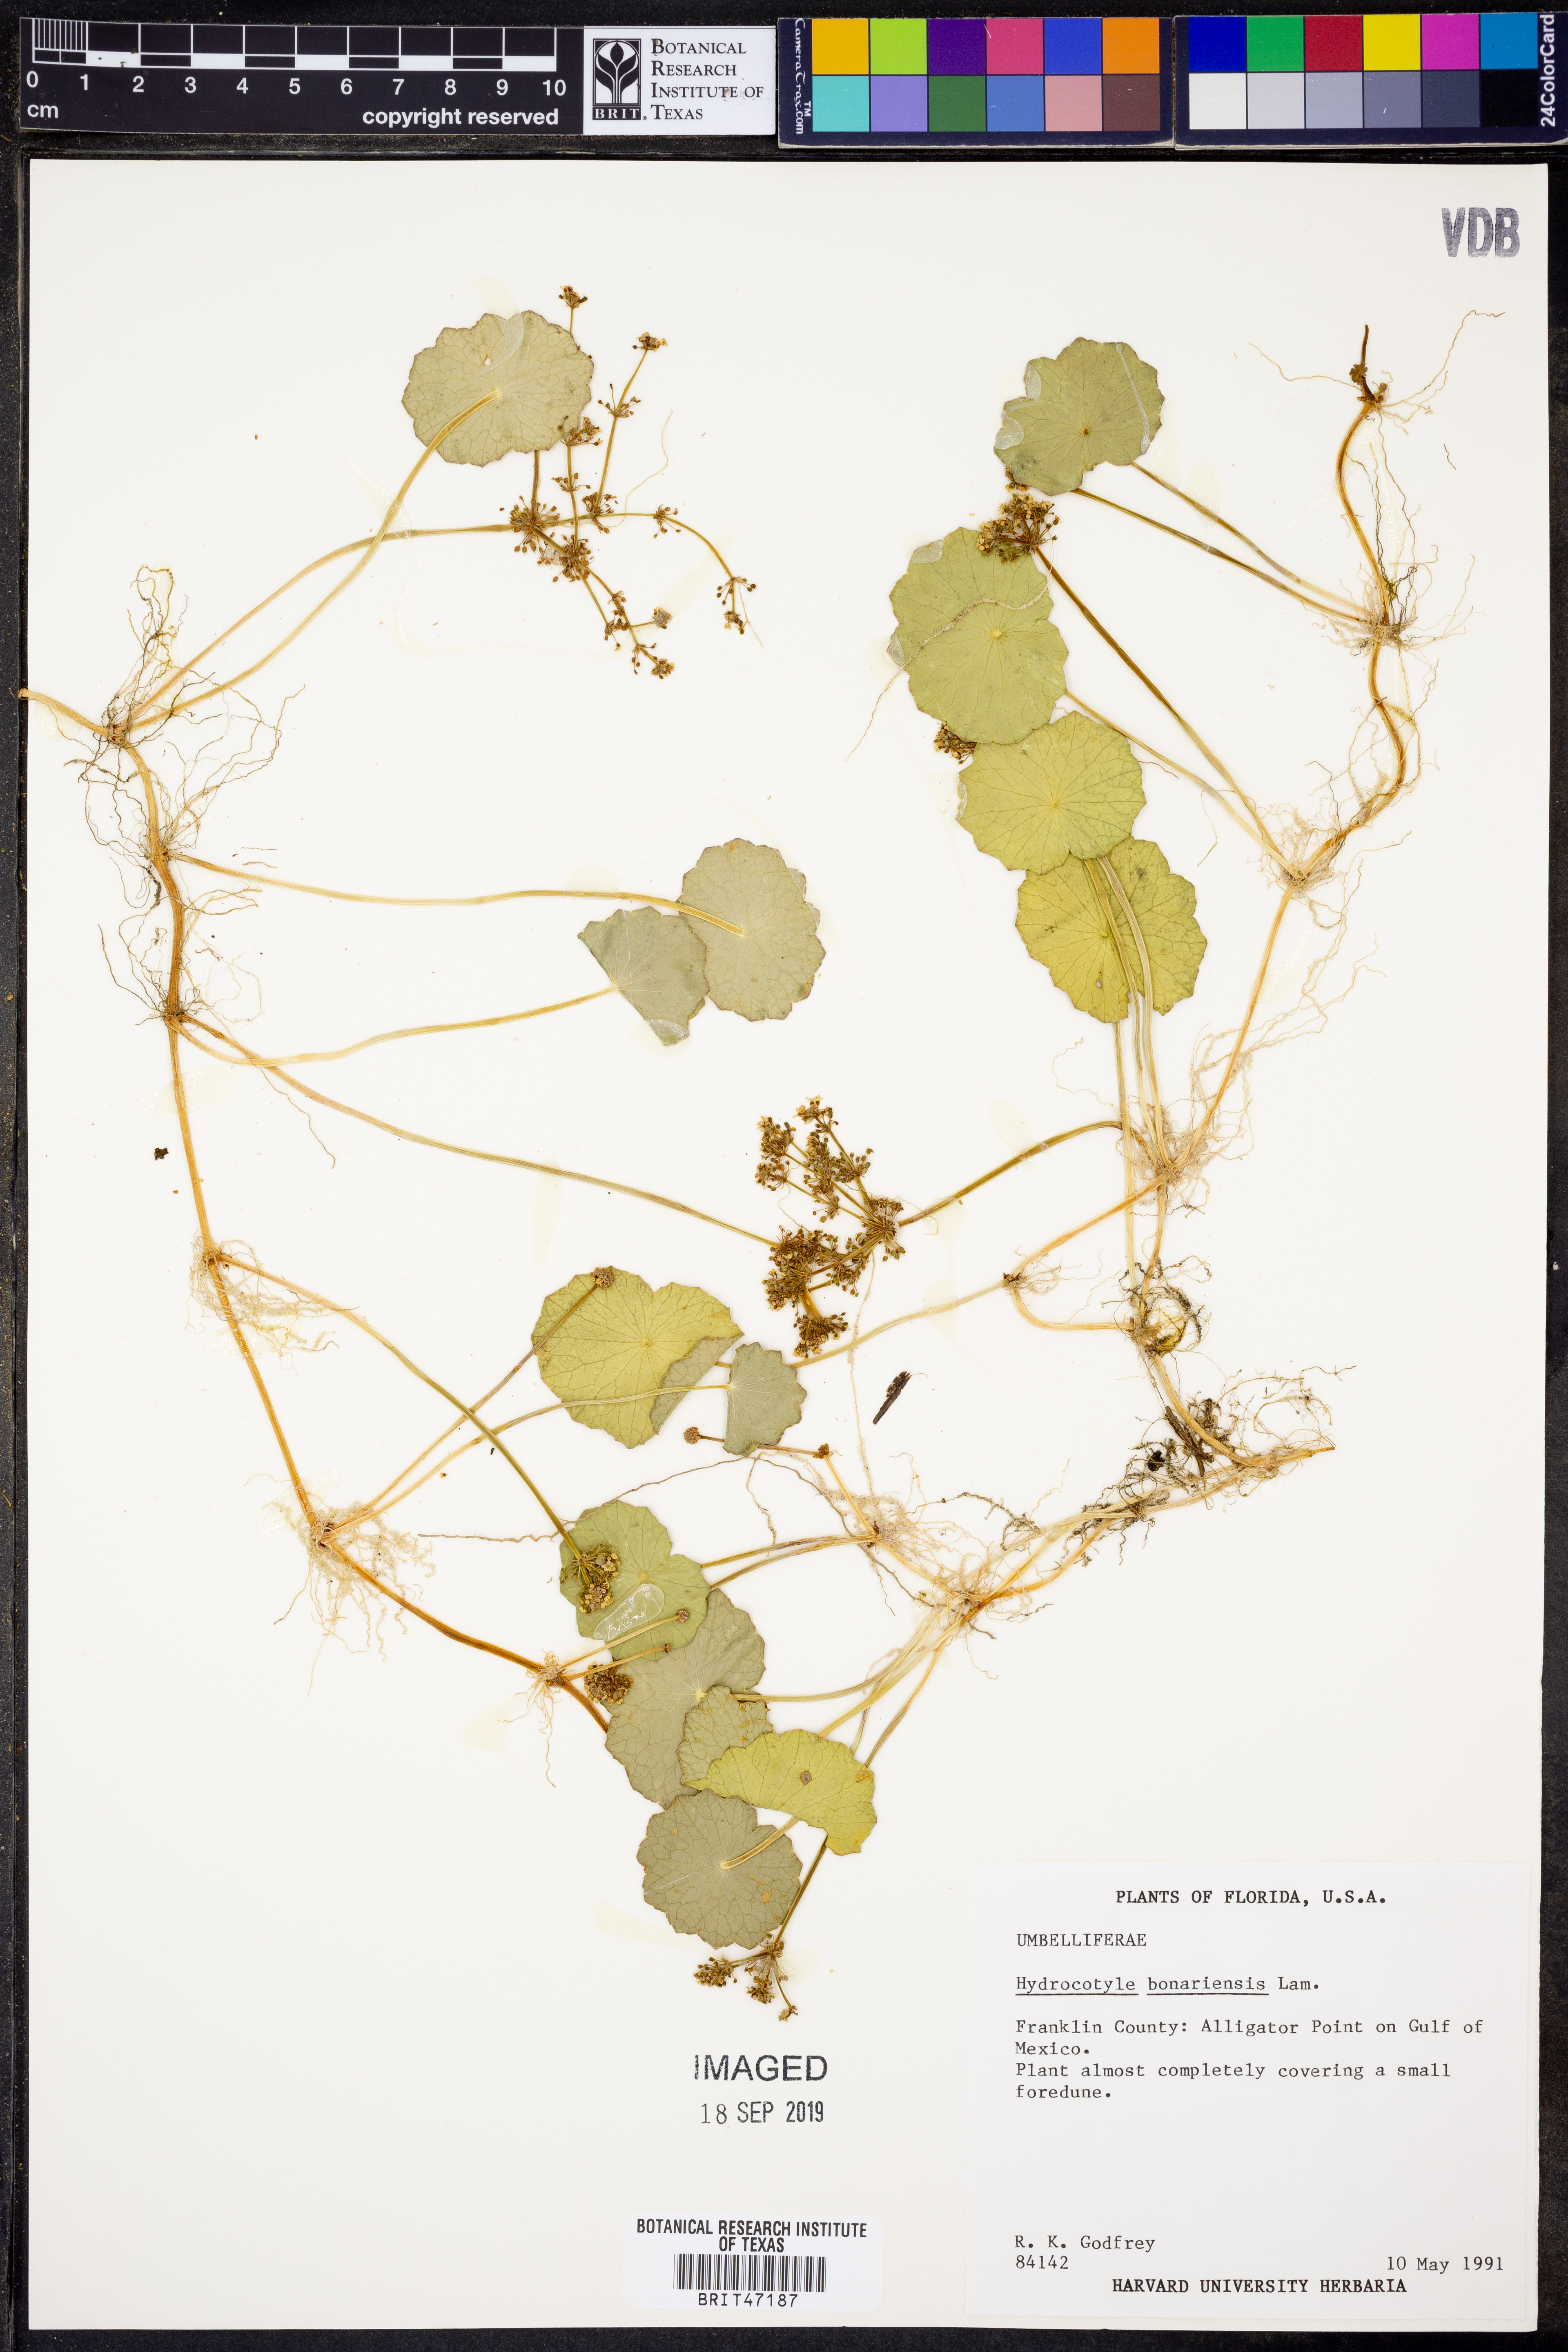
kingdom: Plantae
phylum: Tracheophyta
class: Magnoliopsida
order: Apiales
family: Araliaceae
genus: Hydrocotyle
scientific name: Hydrocotyle bonariensis
